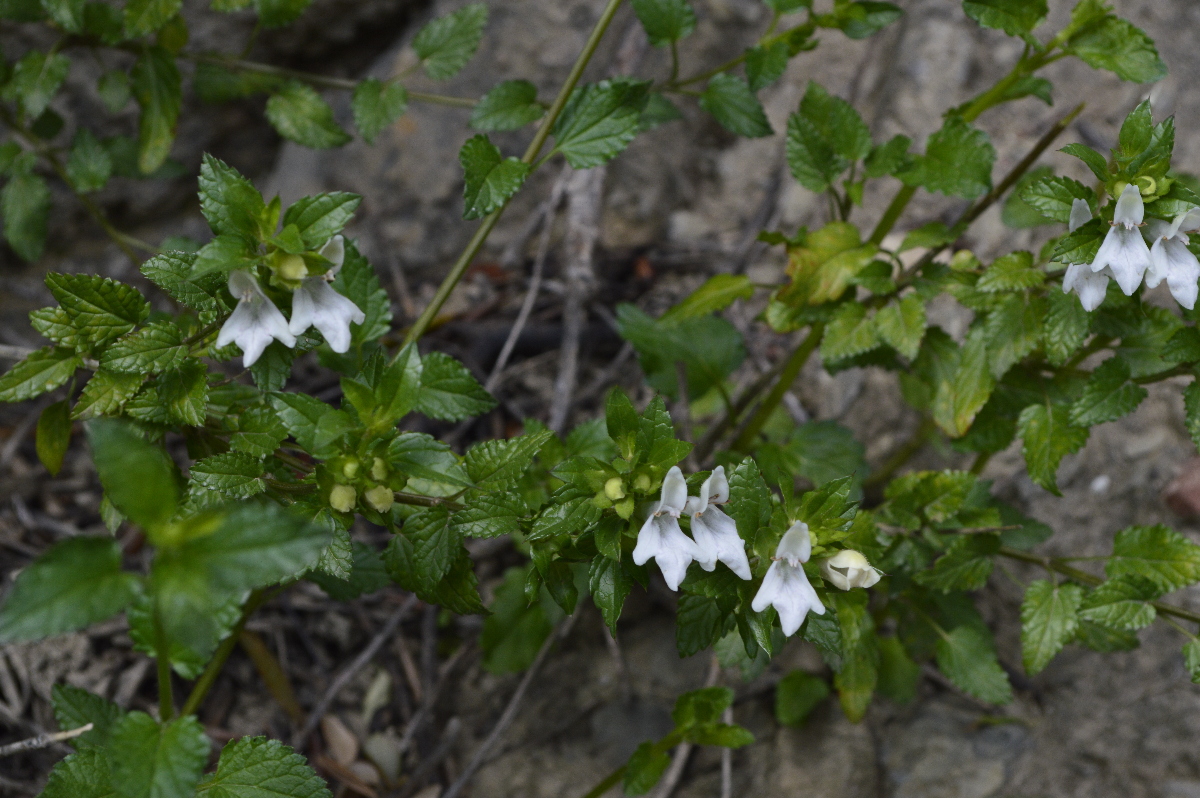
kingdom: Plantae
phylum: Tracheophyta
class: Magnoliopsida
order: Lamiales
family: Lamiaceae
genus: Prasium
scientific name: Prasium majus
